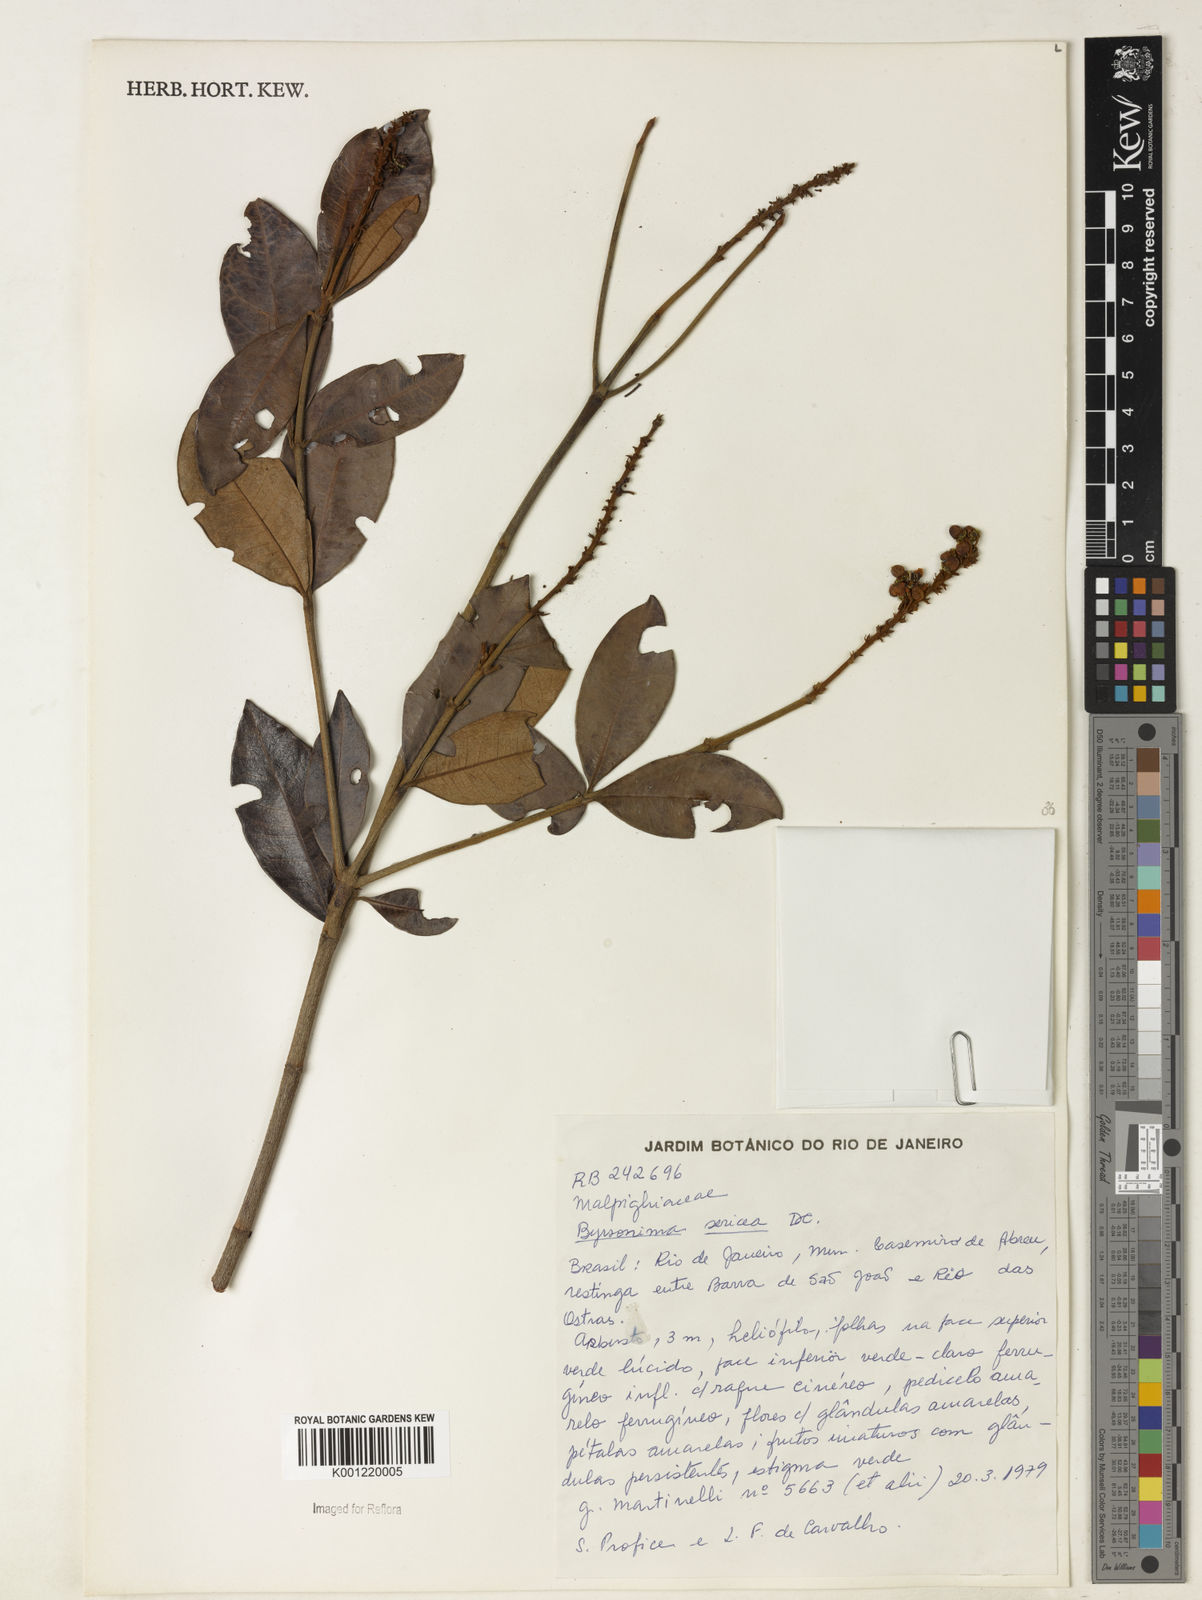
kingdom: Plantae
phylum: Tracheophyta
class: Magnoliopsida
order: Malpighiales
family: Malpighiaceae
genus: Byrsonima
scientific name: Byrsonima sericea
